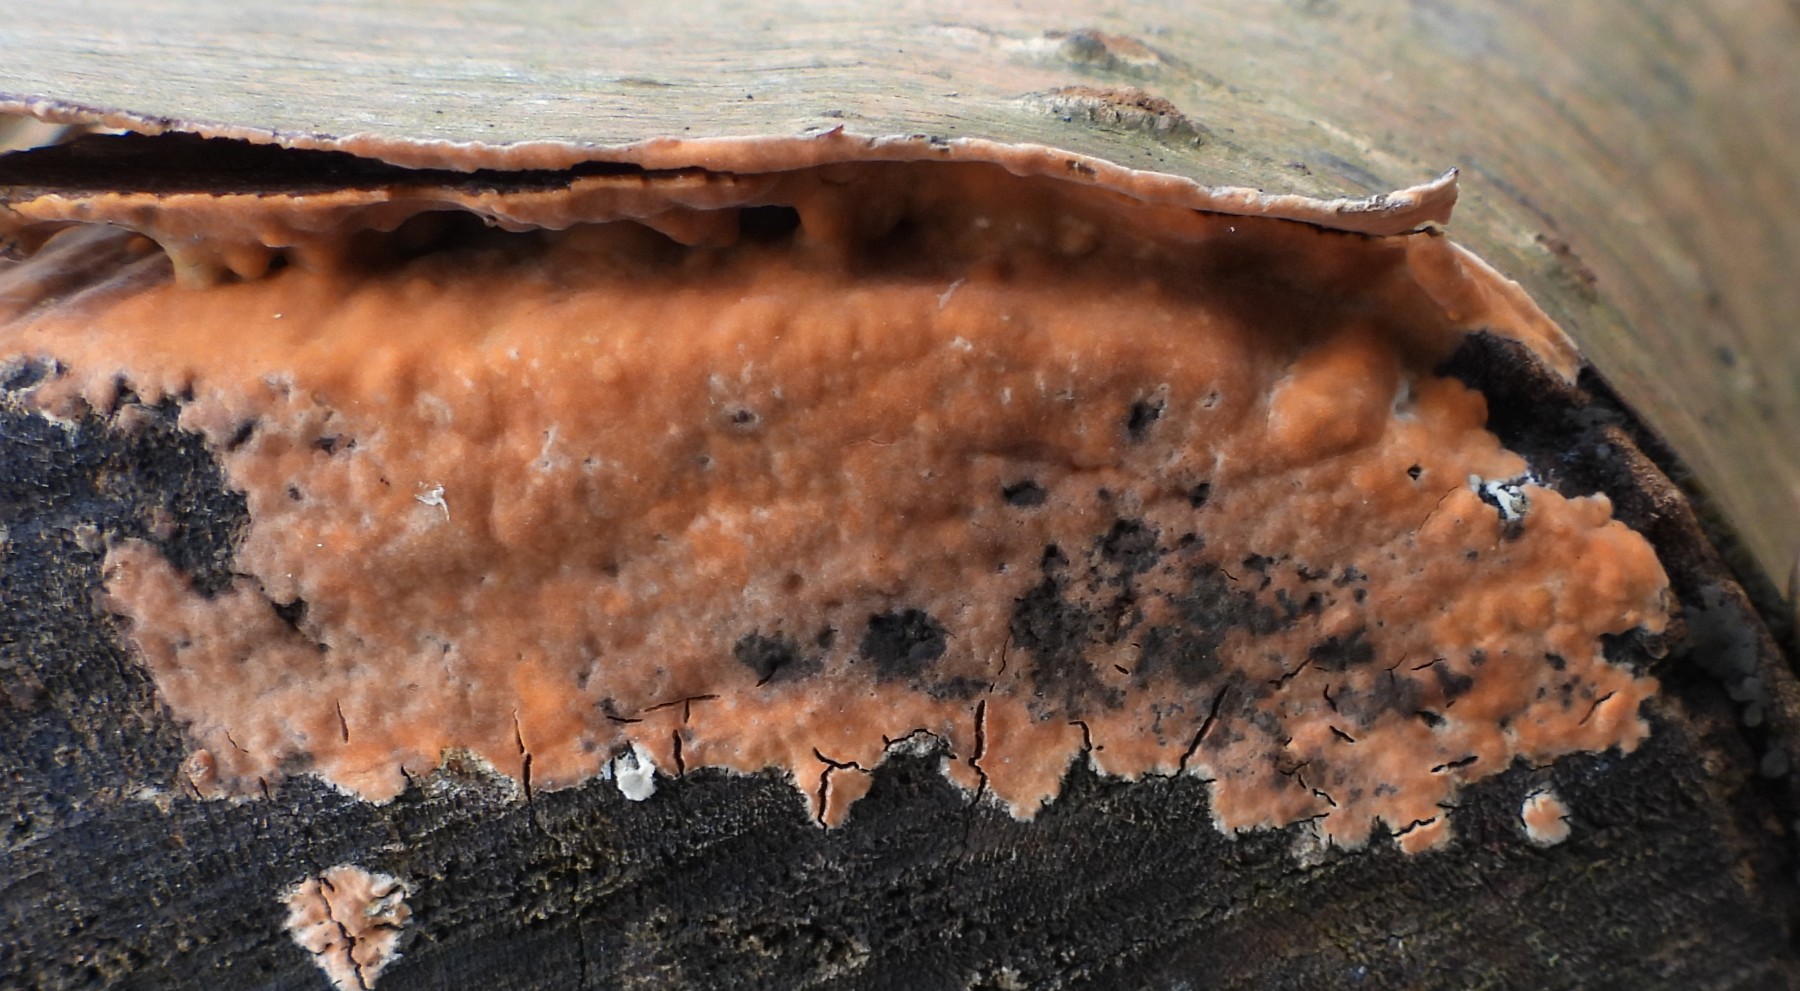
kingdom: Fungi
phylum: Basidiomycota
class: Agaricomycetes
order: Russulales
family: Peniophoraceae
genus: Peniophora
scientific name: Peniophora incarnata
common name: laksefarvet voksskind
